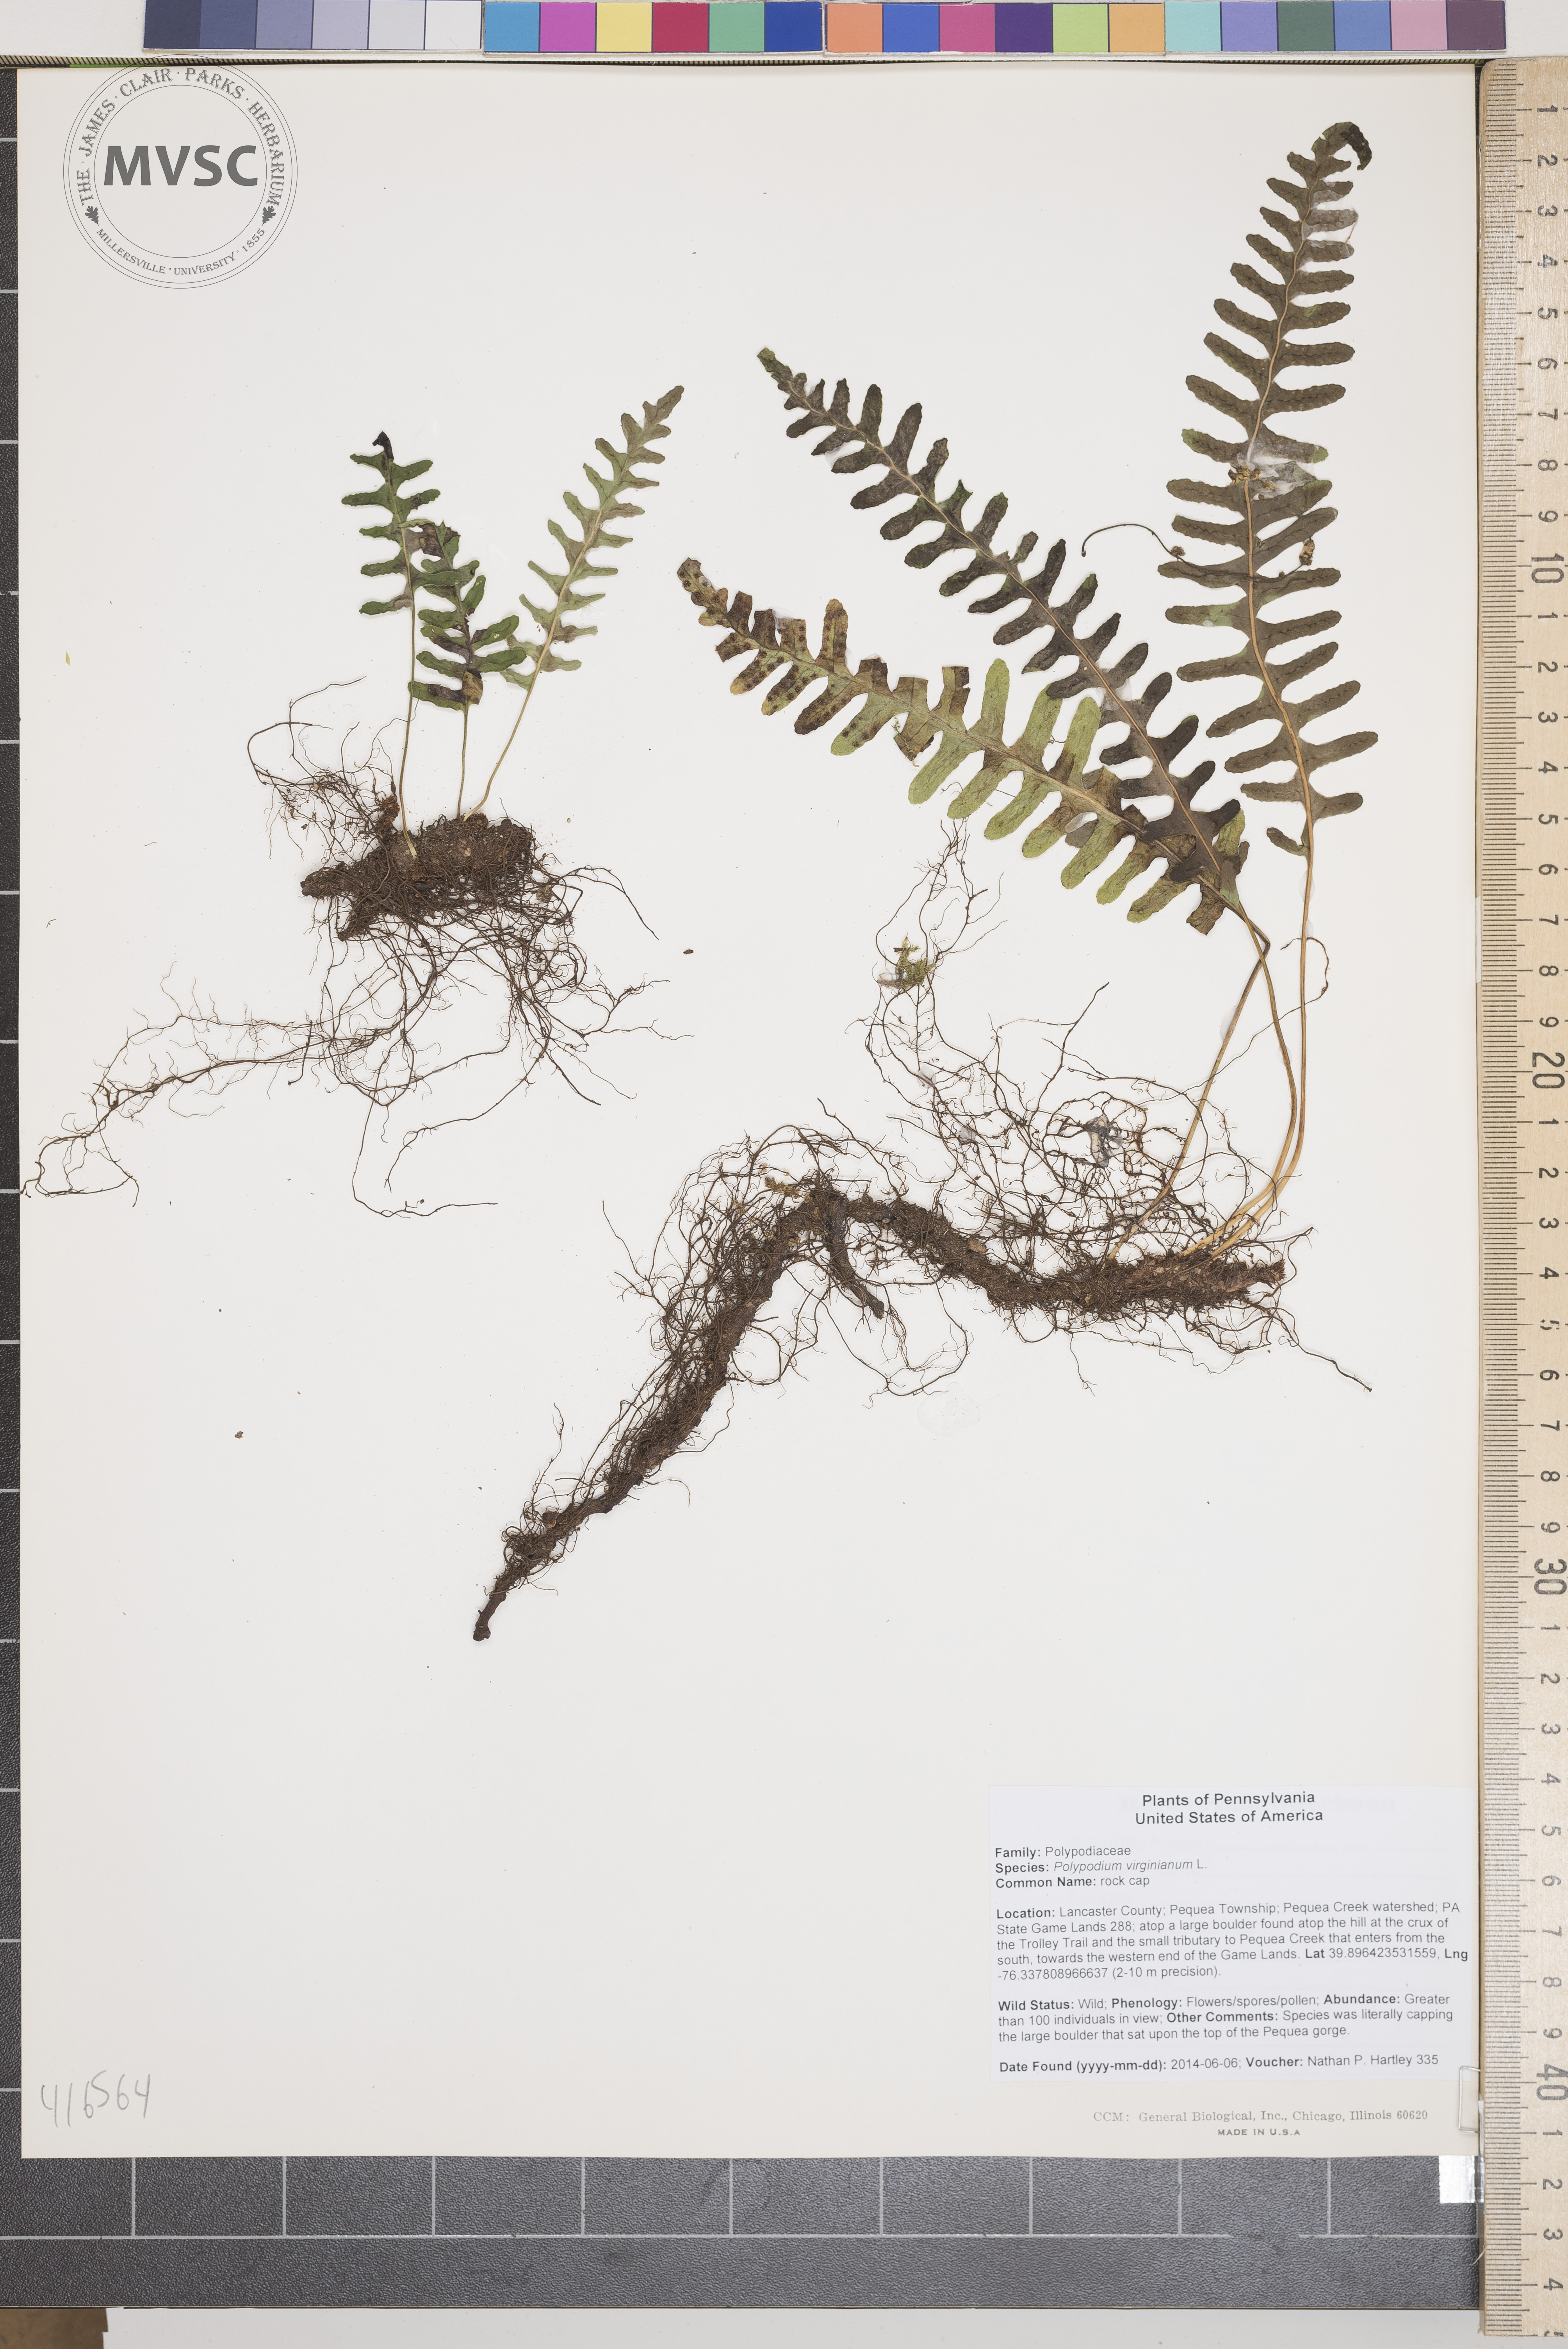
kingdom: Plantae
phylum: Tracheophyta
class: Polypodiopsida
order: Polypodiales
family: Polypodiaceae
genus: Polypodium
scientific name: Polypodium virginianum
